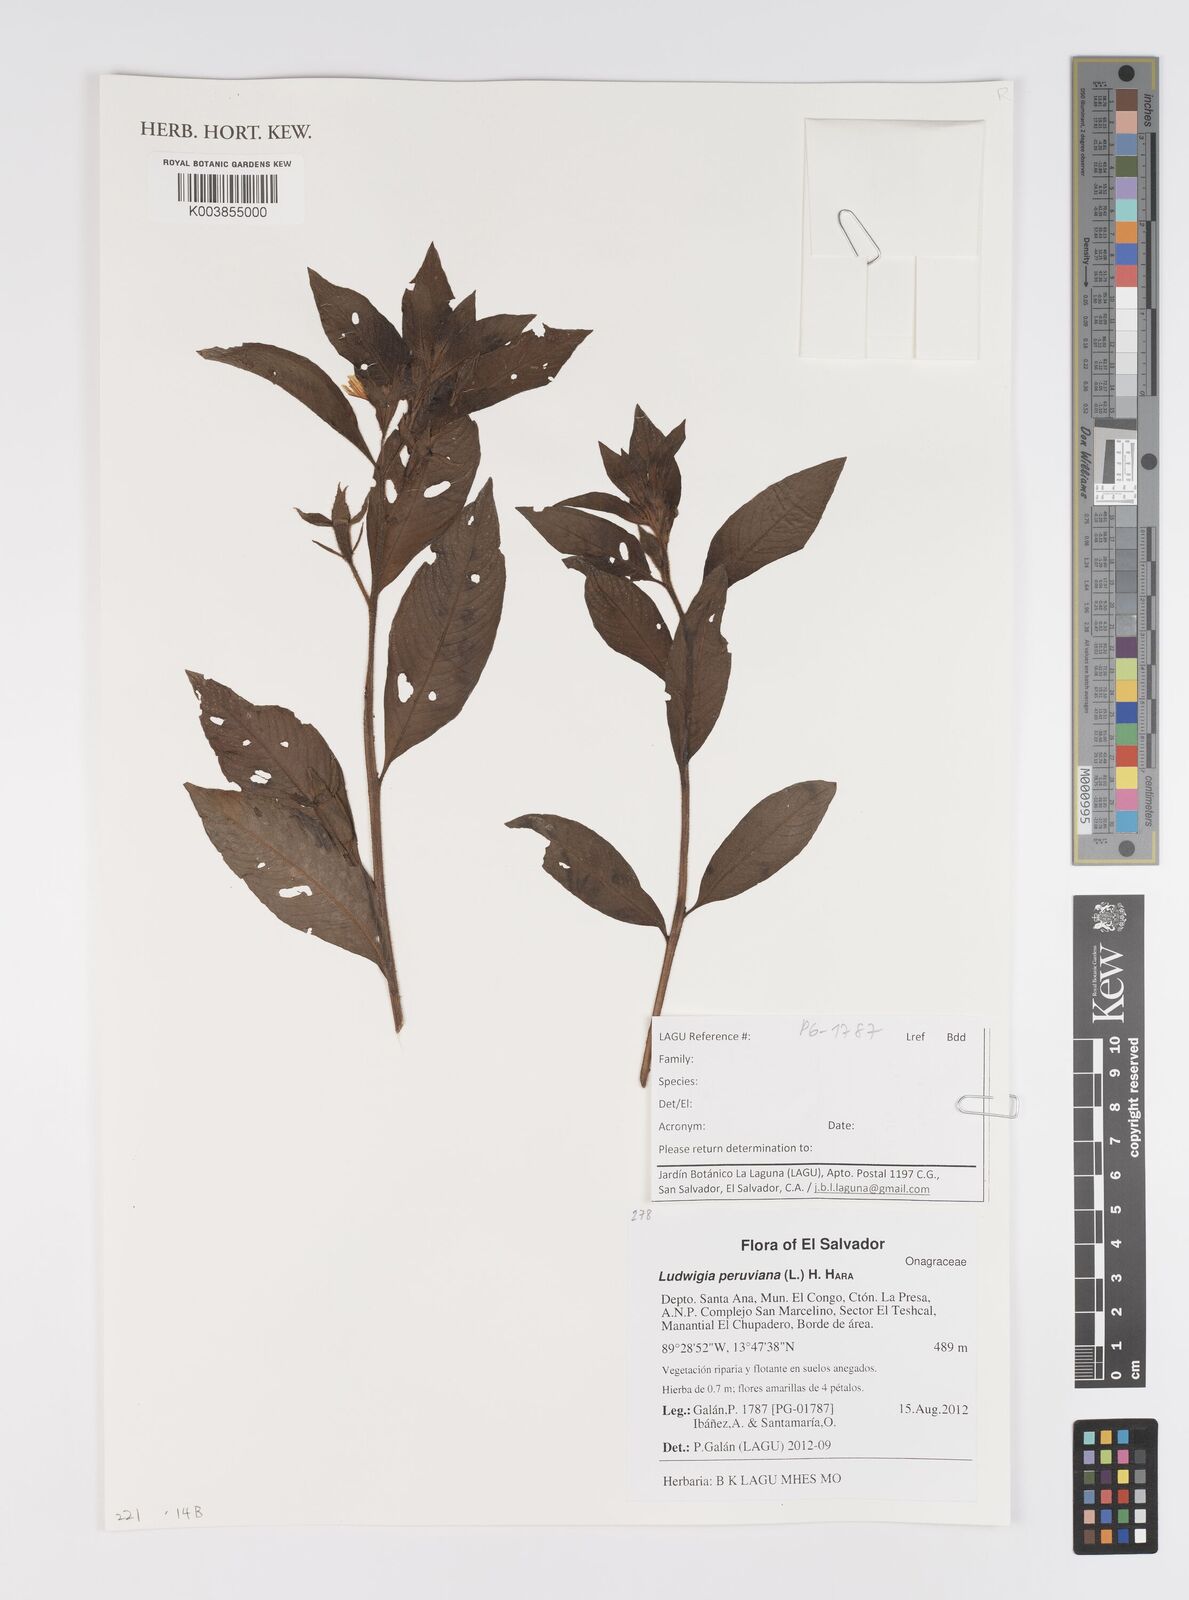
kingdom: Plantae
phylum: Tracheophyta
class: Magnoliopsida
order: Myrtales
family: Onagraceae
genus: Ludwigia
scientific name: Ludwigia peruviana
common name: Peruvian primrose-willow
